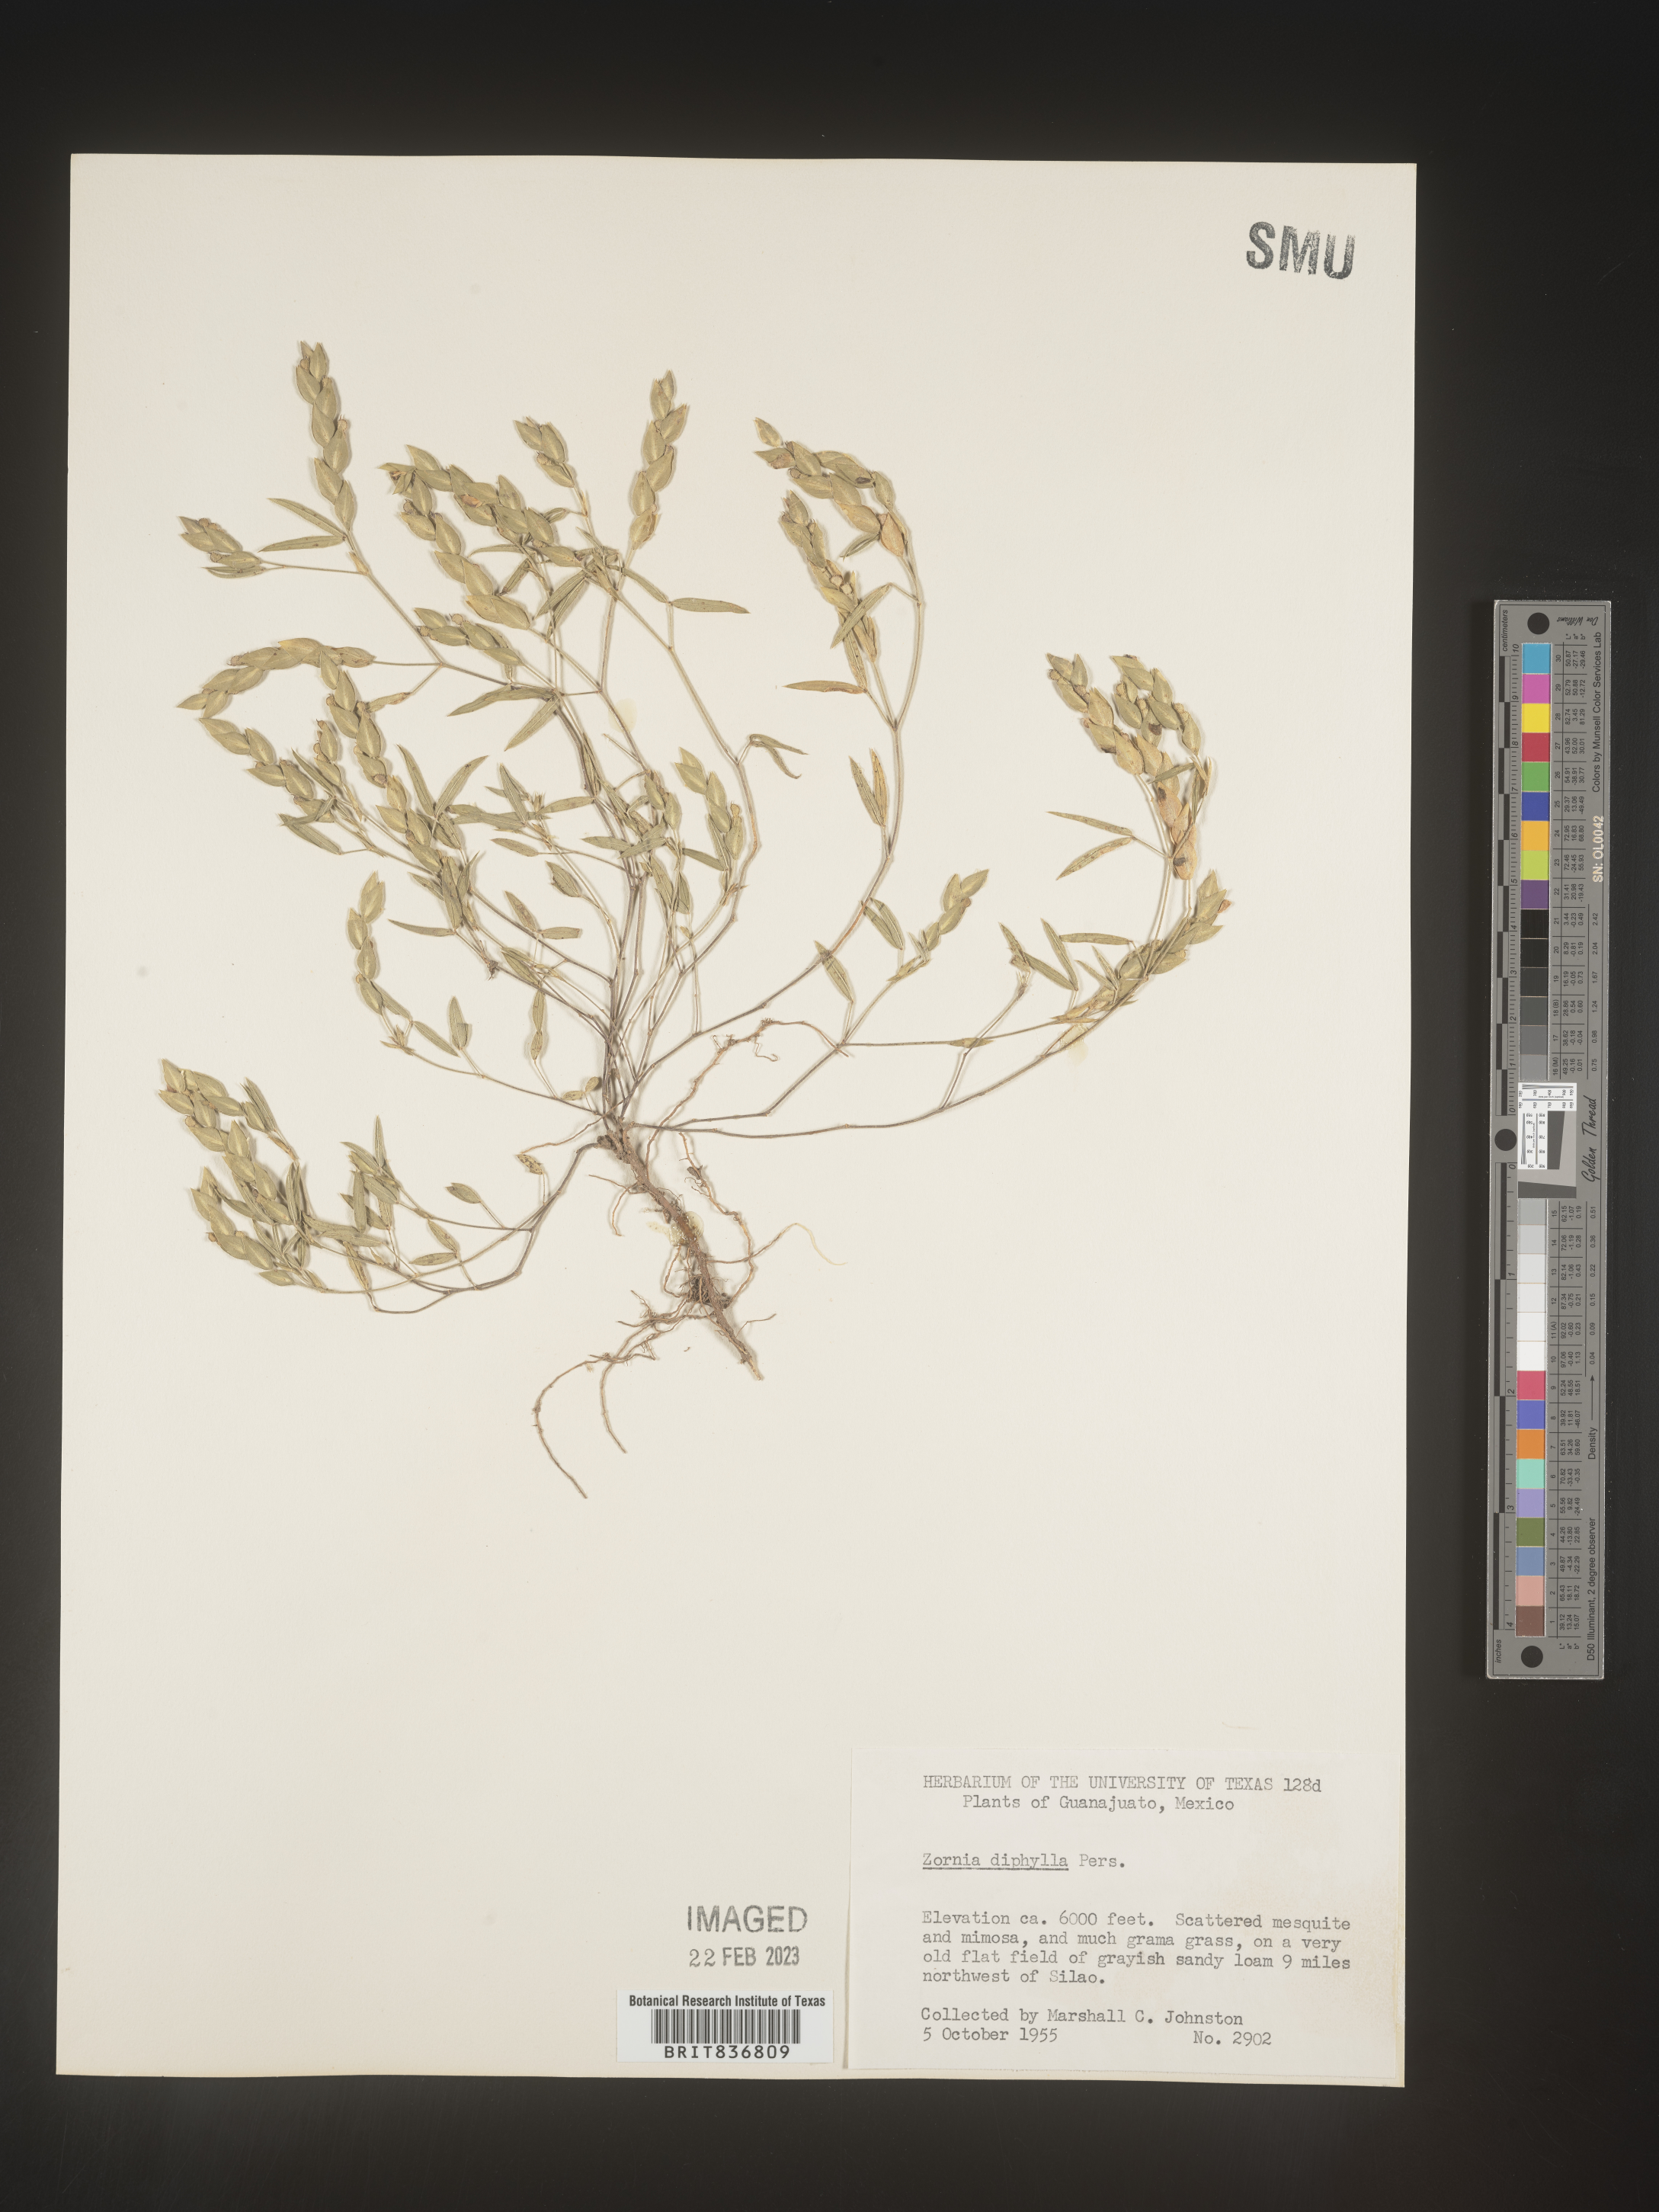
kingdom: Plantae
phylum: Tracheophyta
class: Magnoliopsida
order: Fabales
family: Fabaceae
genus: Zornia
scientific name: Zornia
